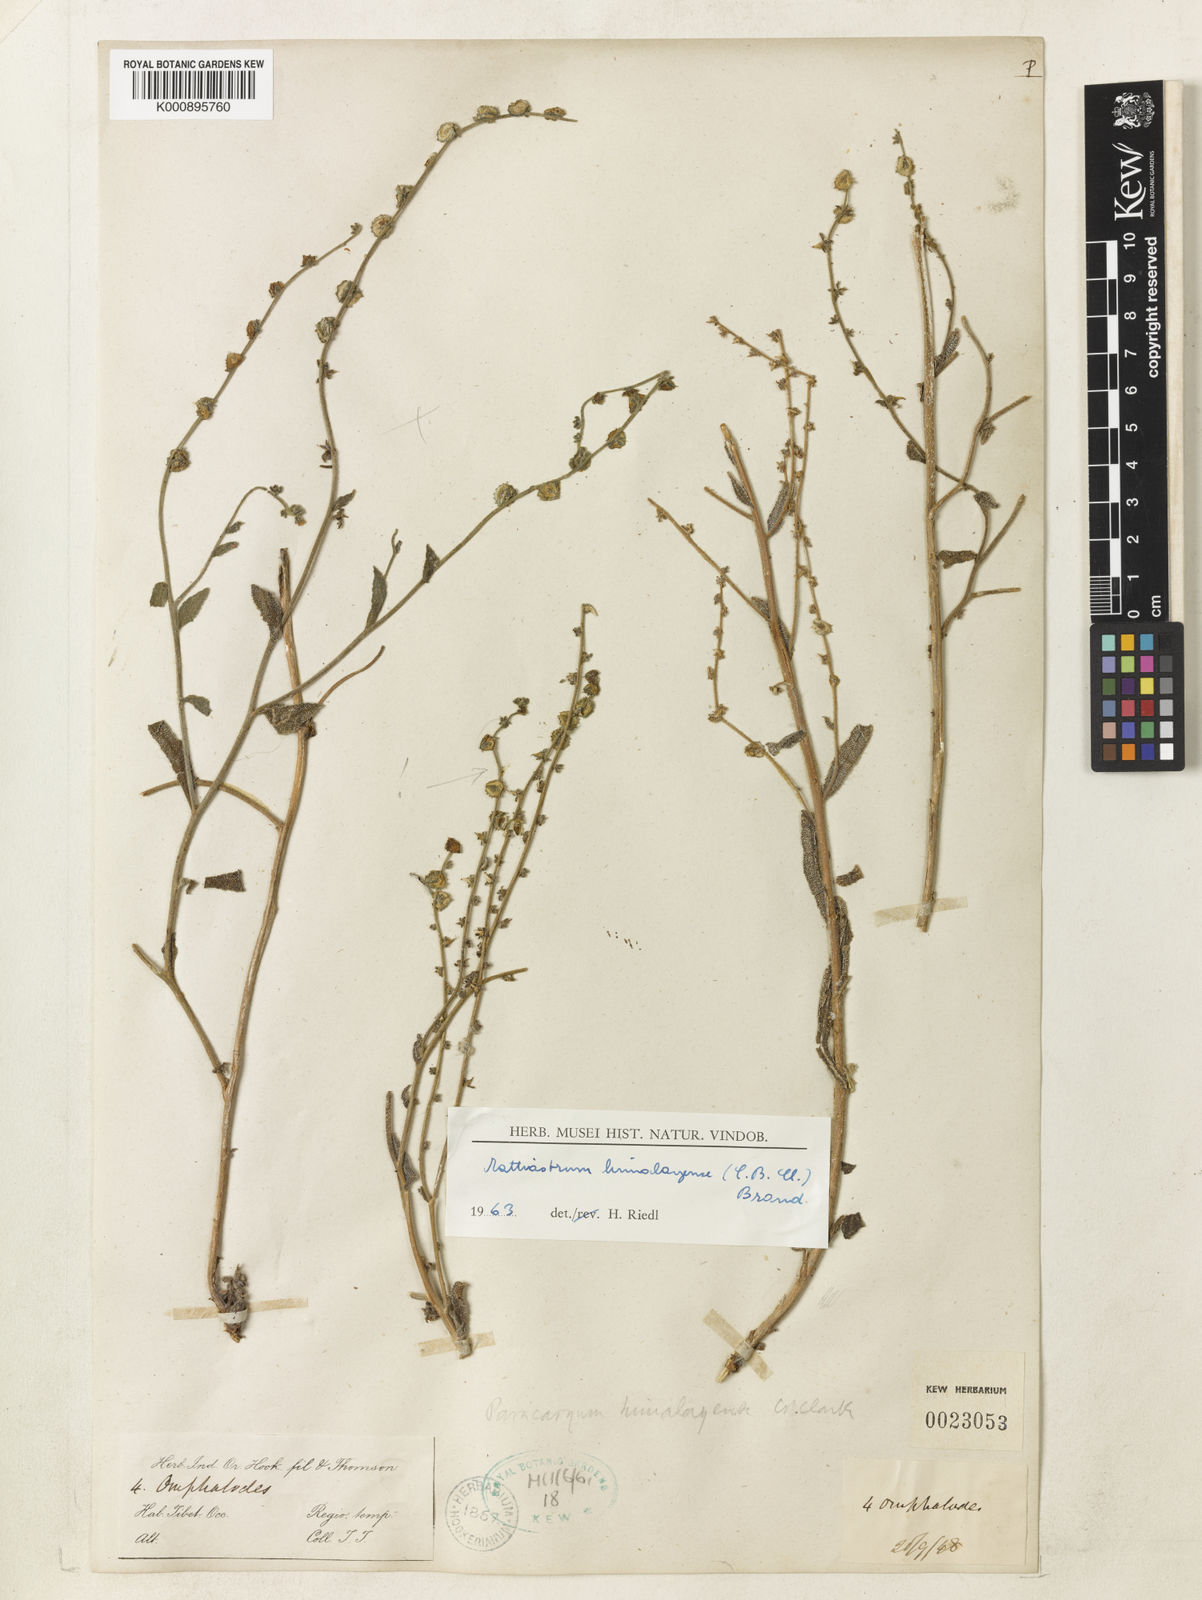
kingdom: Plantae
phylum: Tracheophyta
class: Magnoliopsida
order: Boraginales
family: Boraginaceae
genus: Paracaryum
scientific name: Paracaryum himalayense
